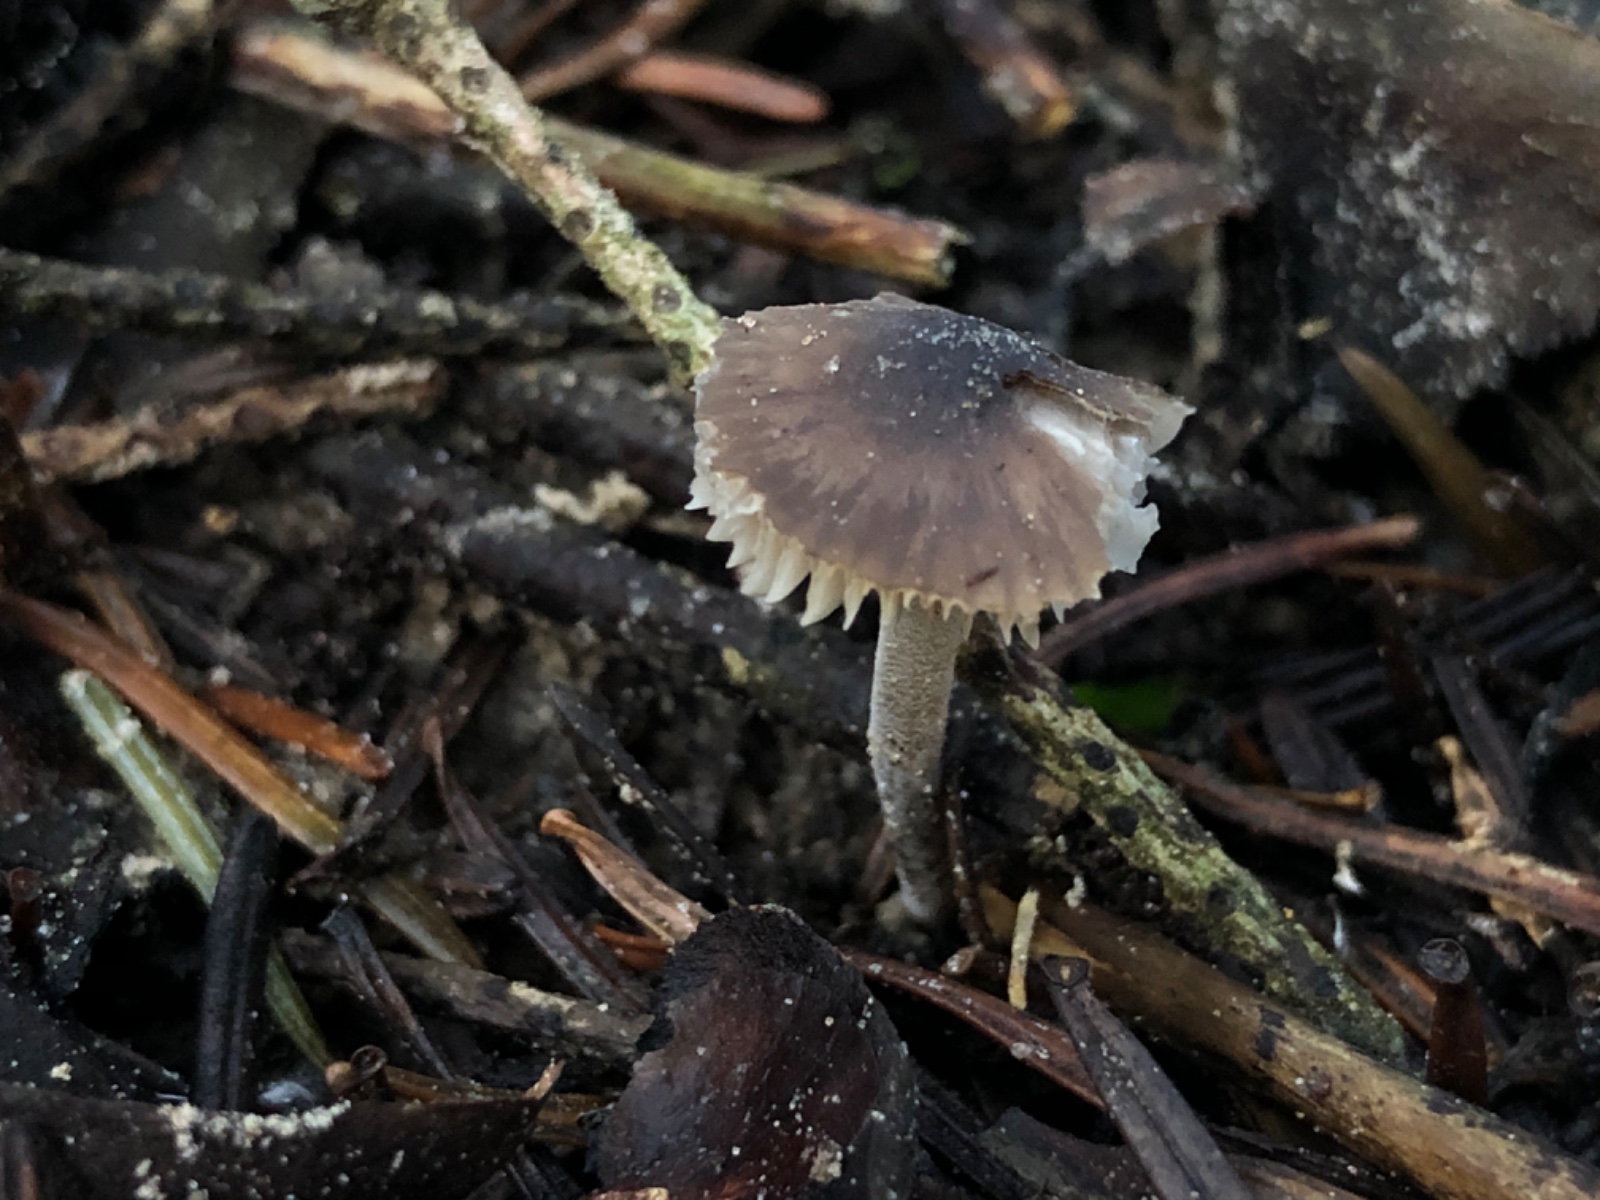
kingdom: Fungi
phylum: Basidiomycota
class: Agaricomycetes
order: Agaricales
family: Tricholomataceae
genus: Mycenella
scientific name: Mycenella salicina
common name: glatsporet dughat
